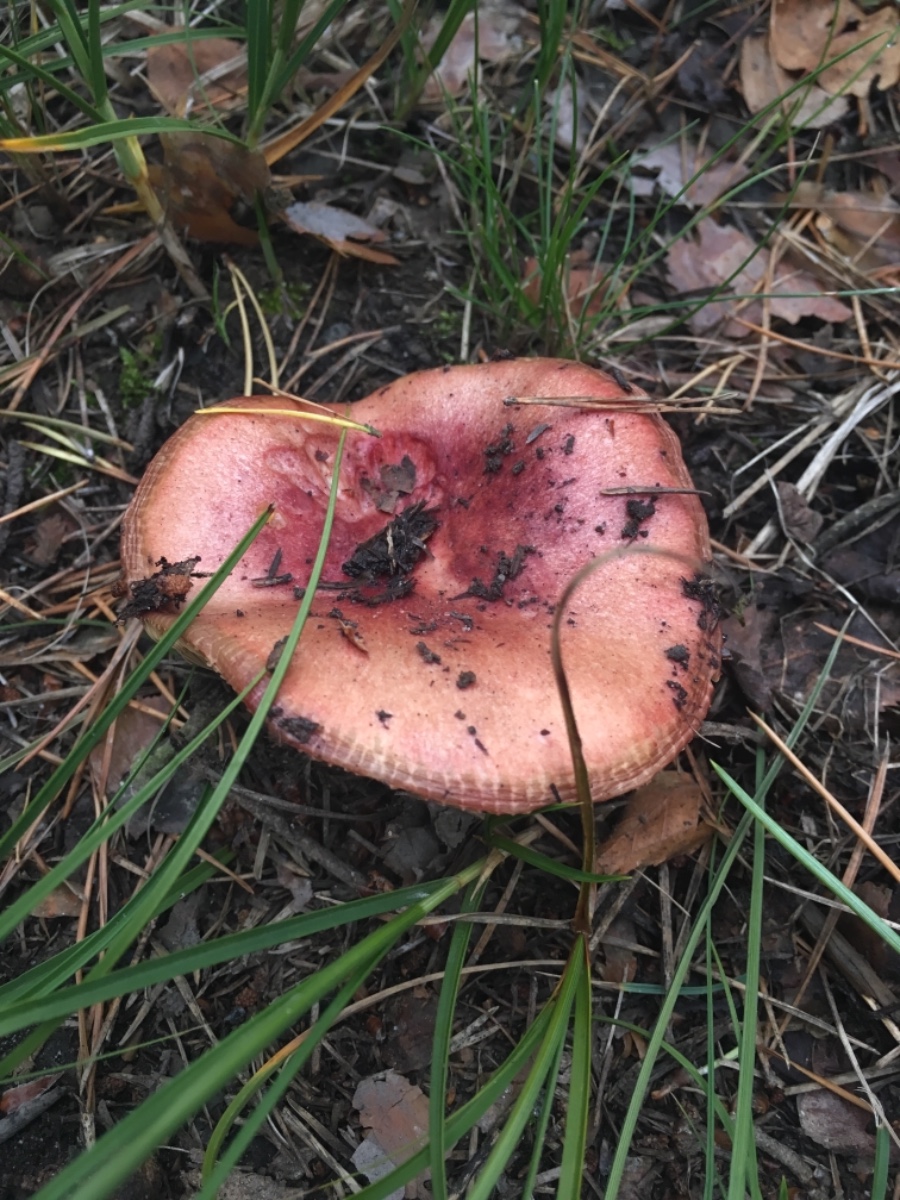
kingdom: Fungi
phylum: Basidiomycota
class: Agaricomycetes
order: Russulales
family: Russulaceae
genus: Russula
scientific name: Russula xerampelina
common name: hummer-skørhat
